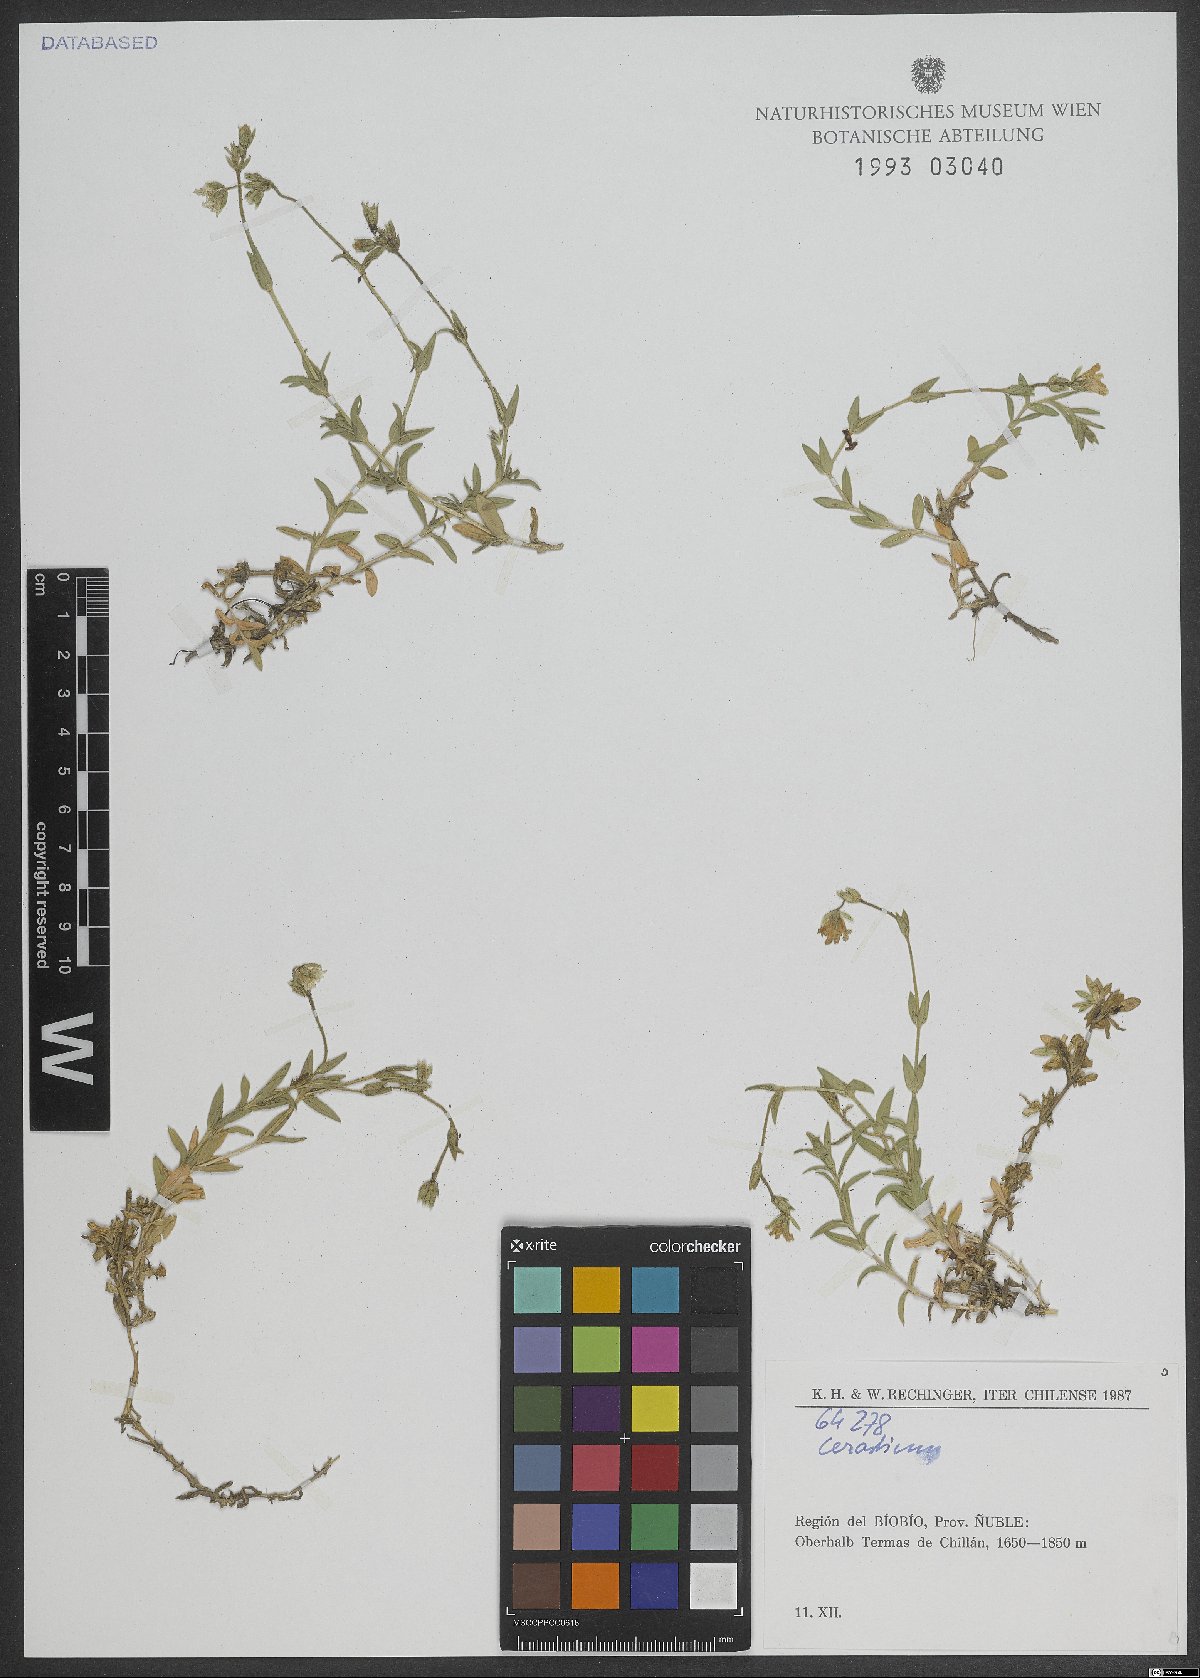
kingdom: Plantae
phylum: Tracheophyta
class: Magnoliopsida
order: Caryophyllales
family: Caryophyllaceae
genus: Cerastium
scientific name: Cerastium
